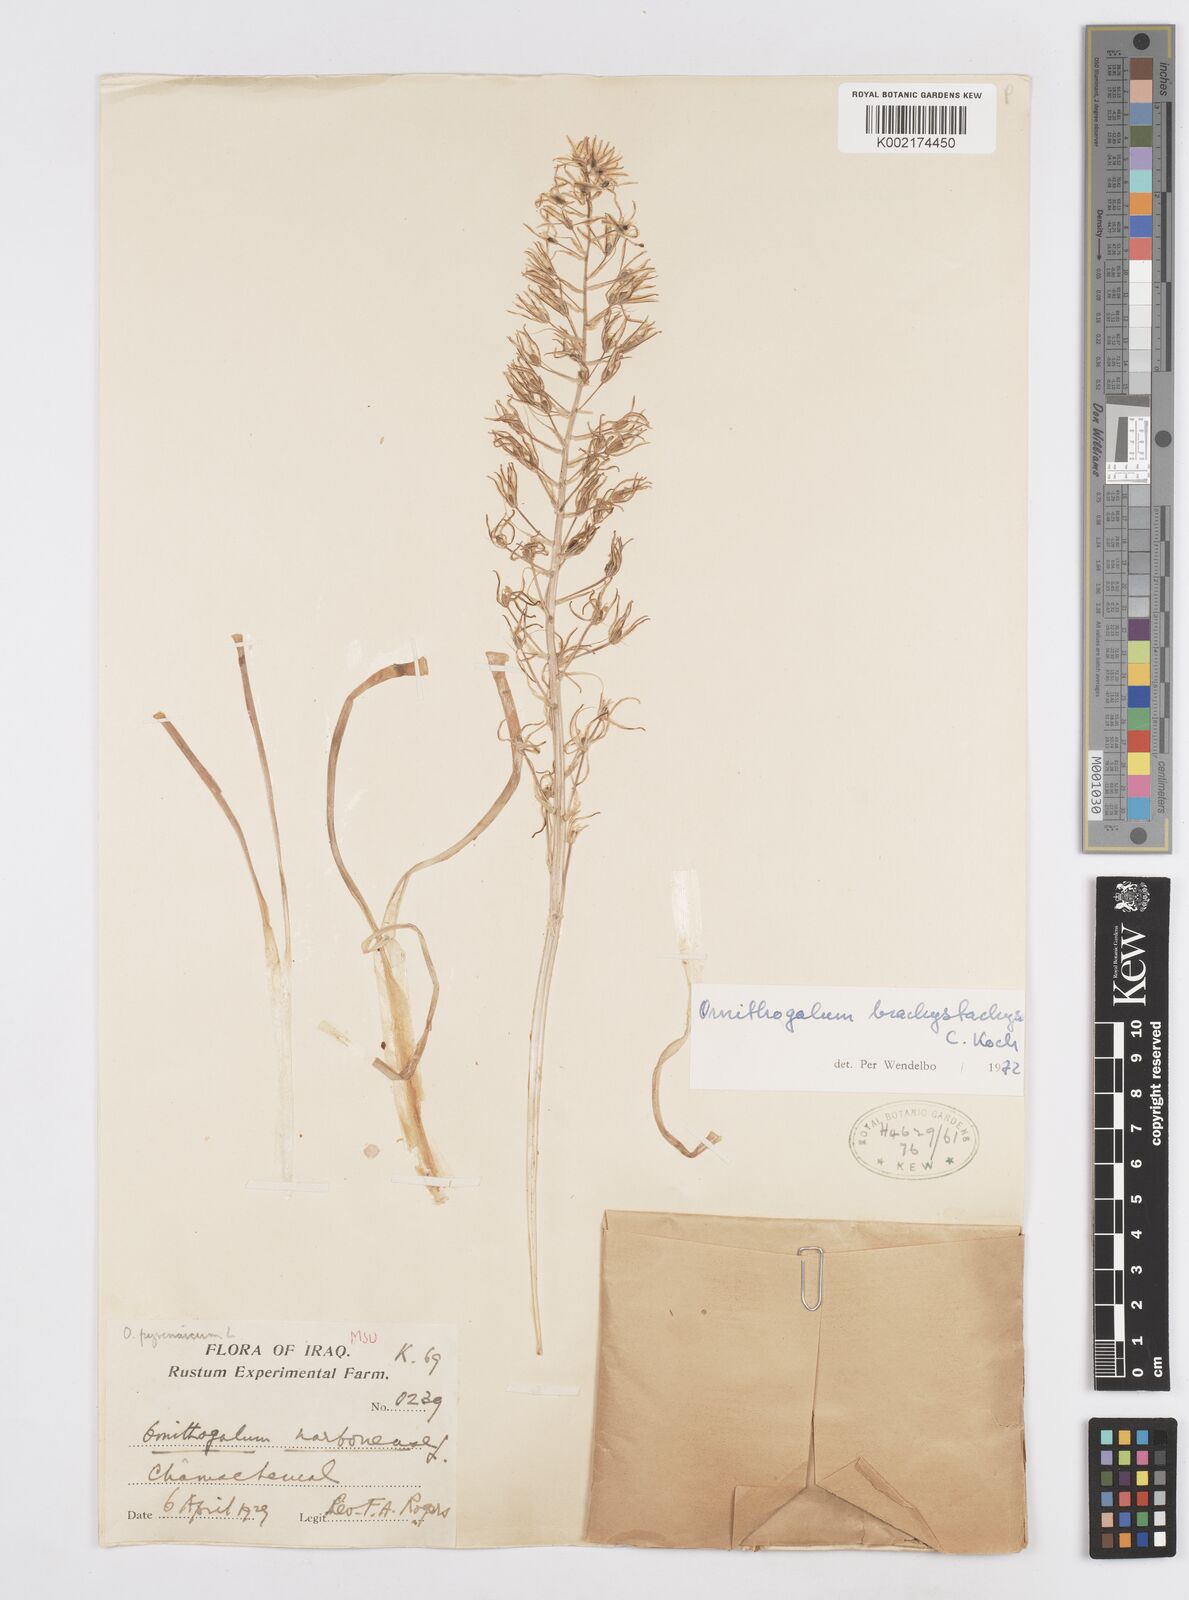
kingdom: Plantae
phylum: Tracheophyta
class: Liliopsida
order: Asparagales
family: Asparagaceae
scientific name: Asparagaceae
